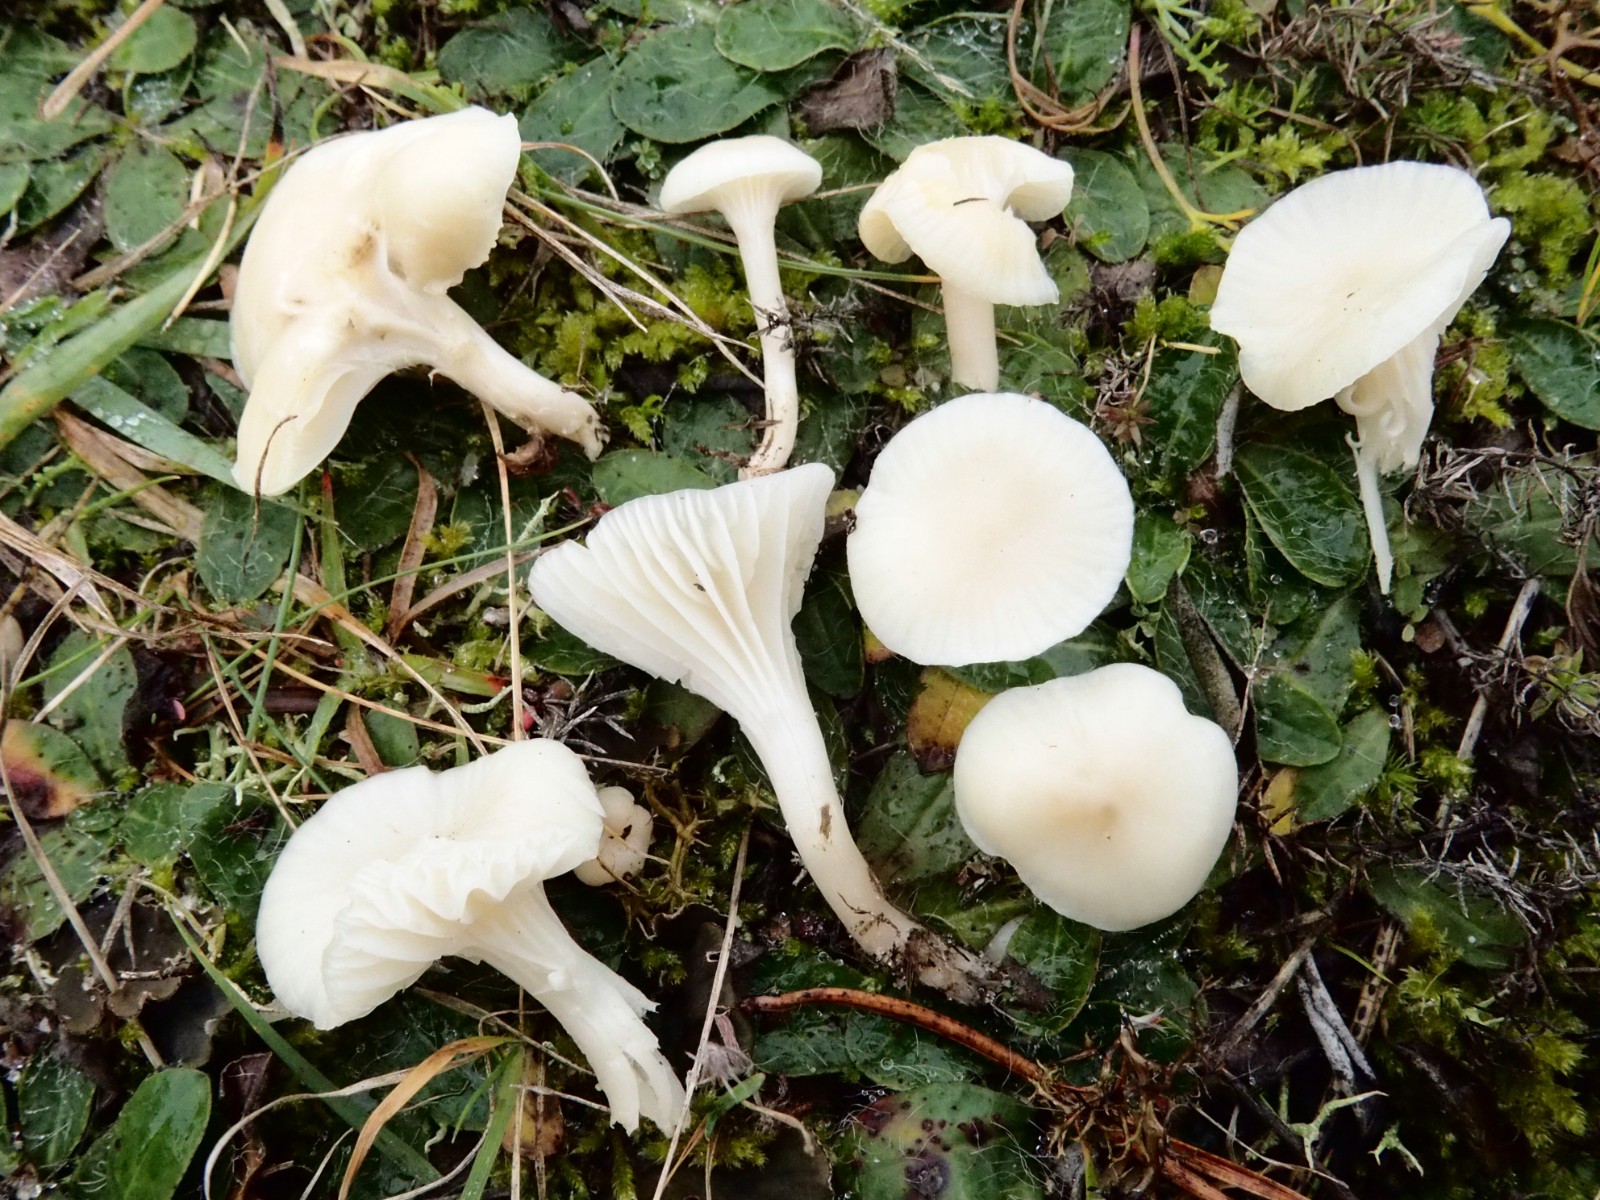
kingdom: Fungi
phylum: Basidiomycota
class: Agaricomycetes
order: Agaricales
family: Hygrophoraceae
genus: Cuphophyllus
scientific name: Cuphophyllus russocoriaceus
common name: ruslæder-vokshat
